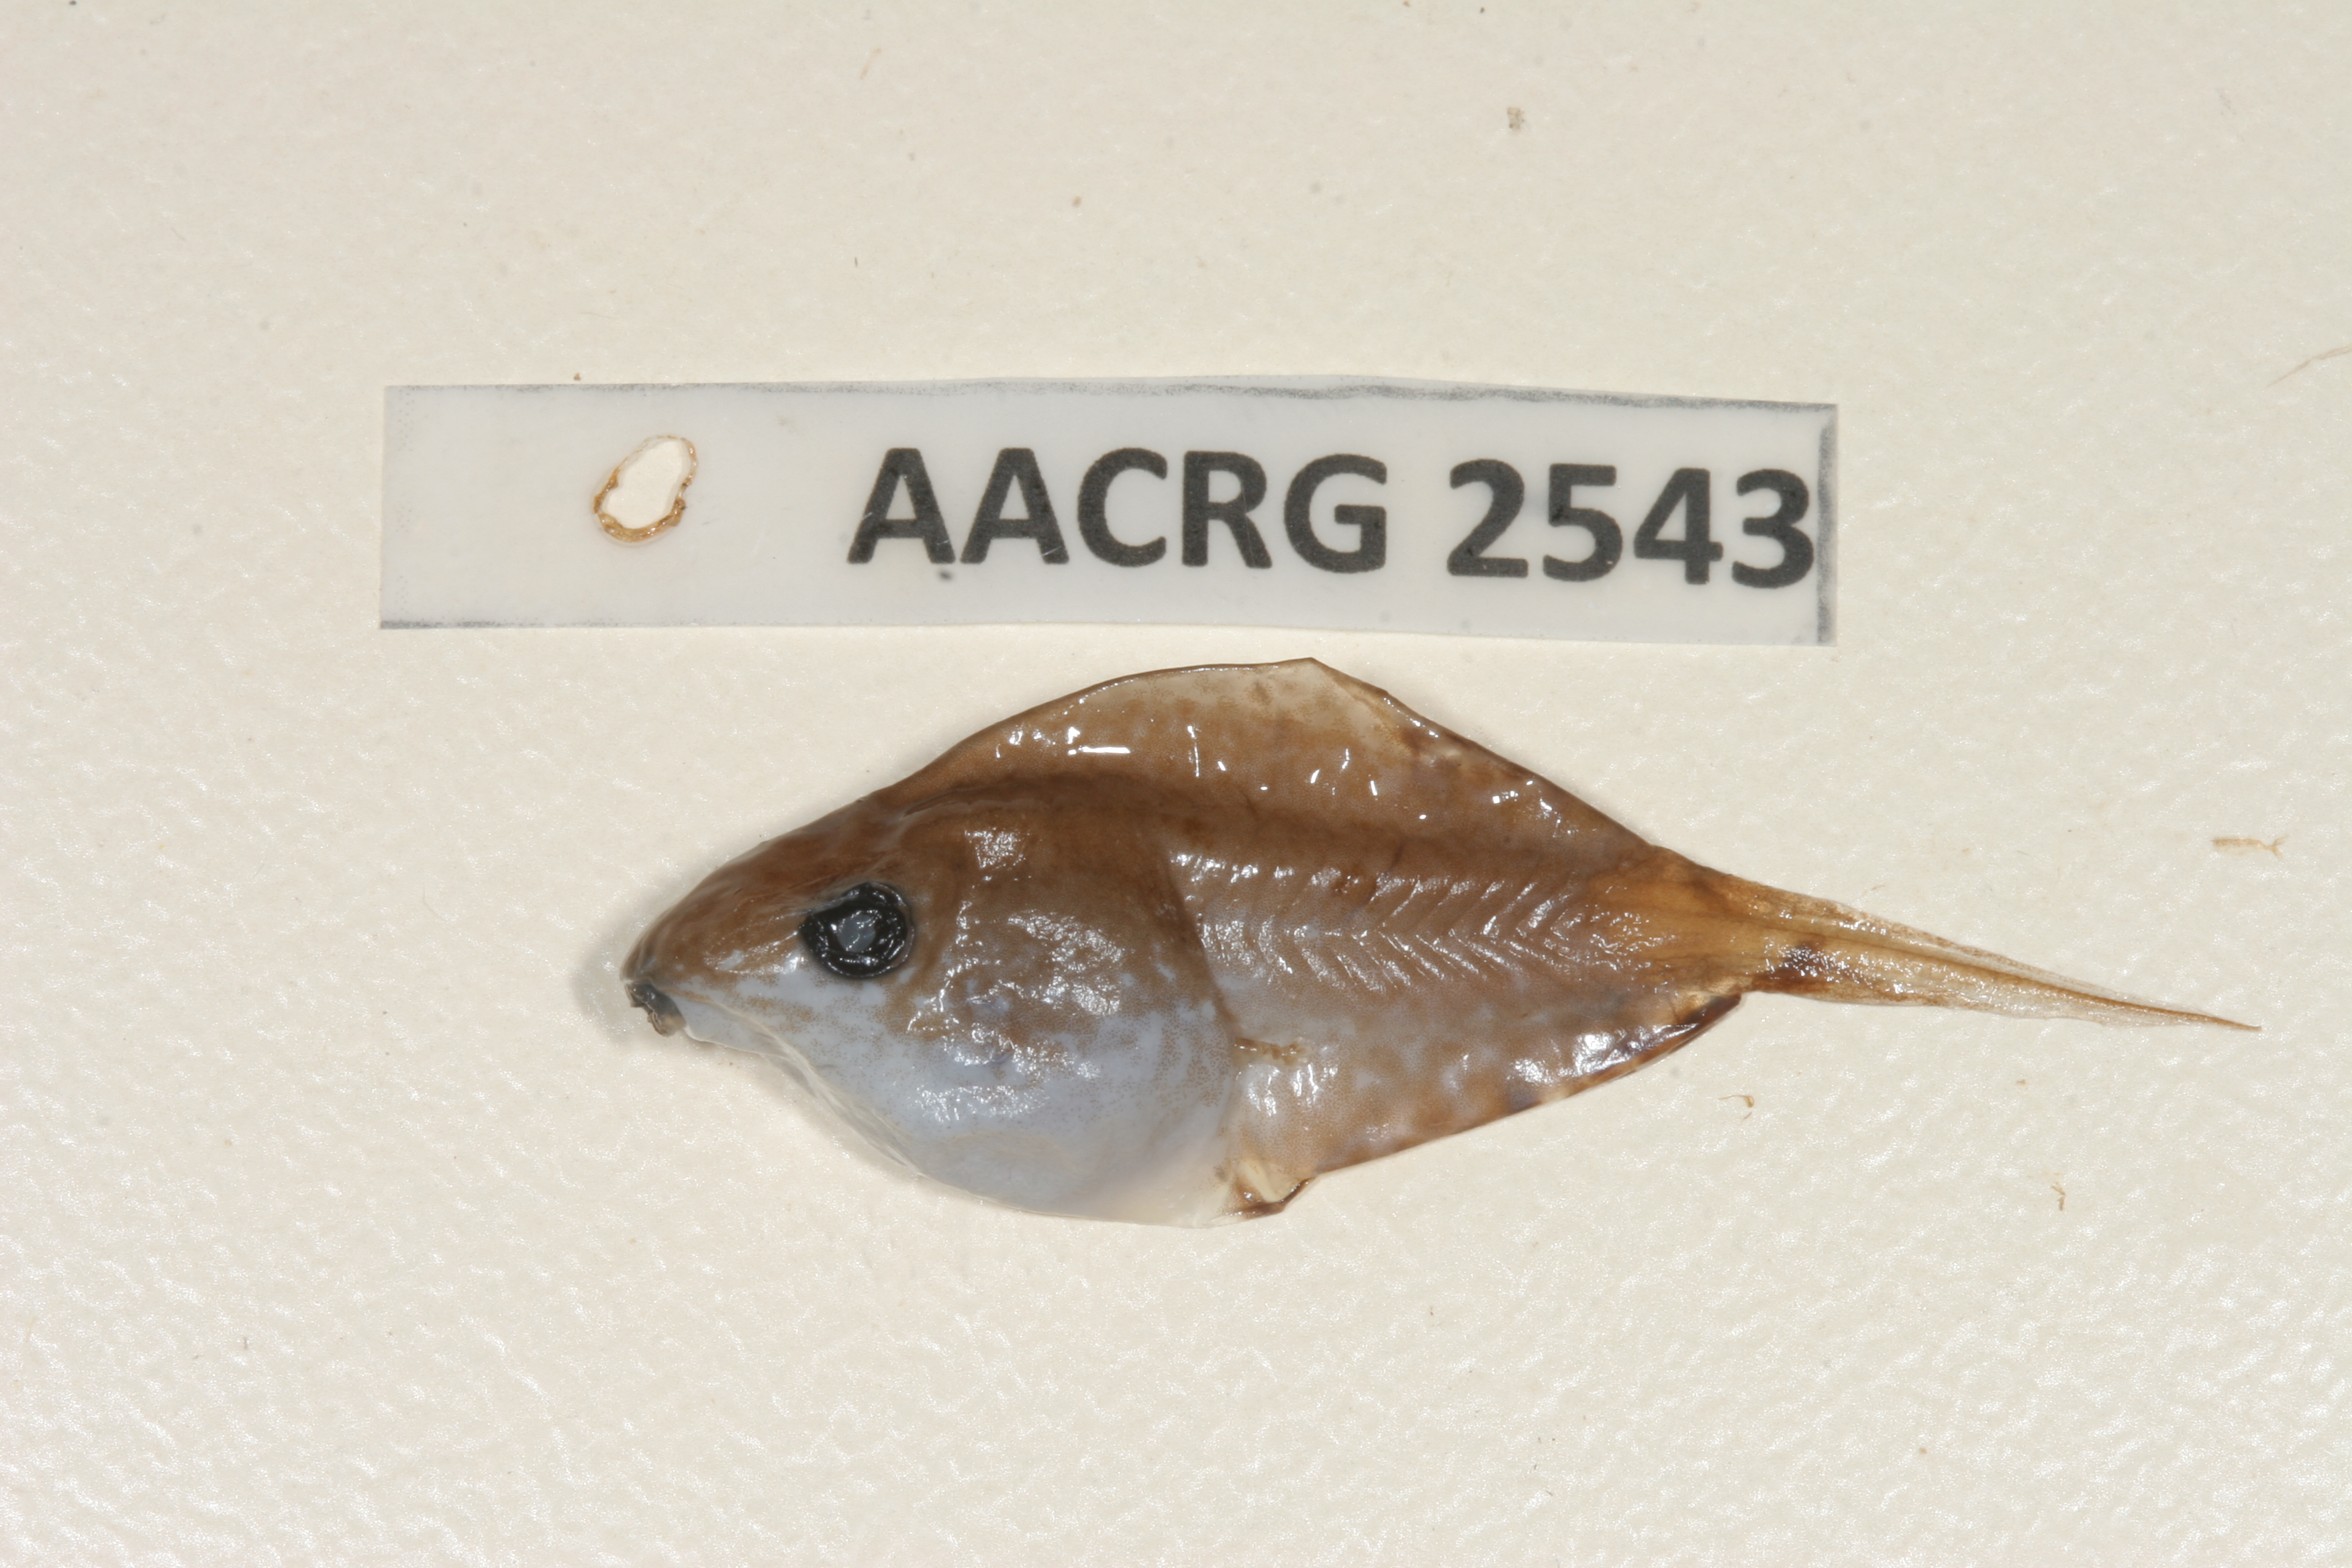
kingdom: Animalia
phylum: Chordata
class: Amphibia
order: Anura
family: Hyperoliidae
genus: Kassina
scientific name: Kassina senegalensis
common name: Senegal land frog
